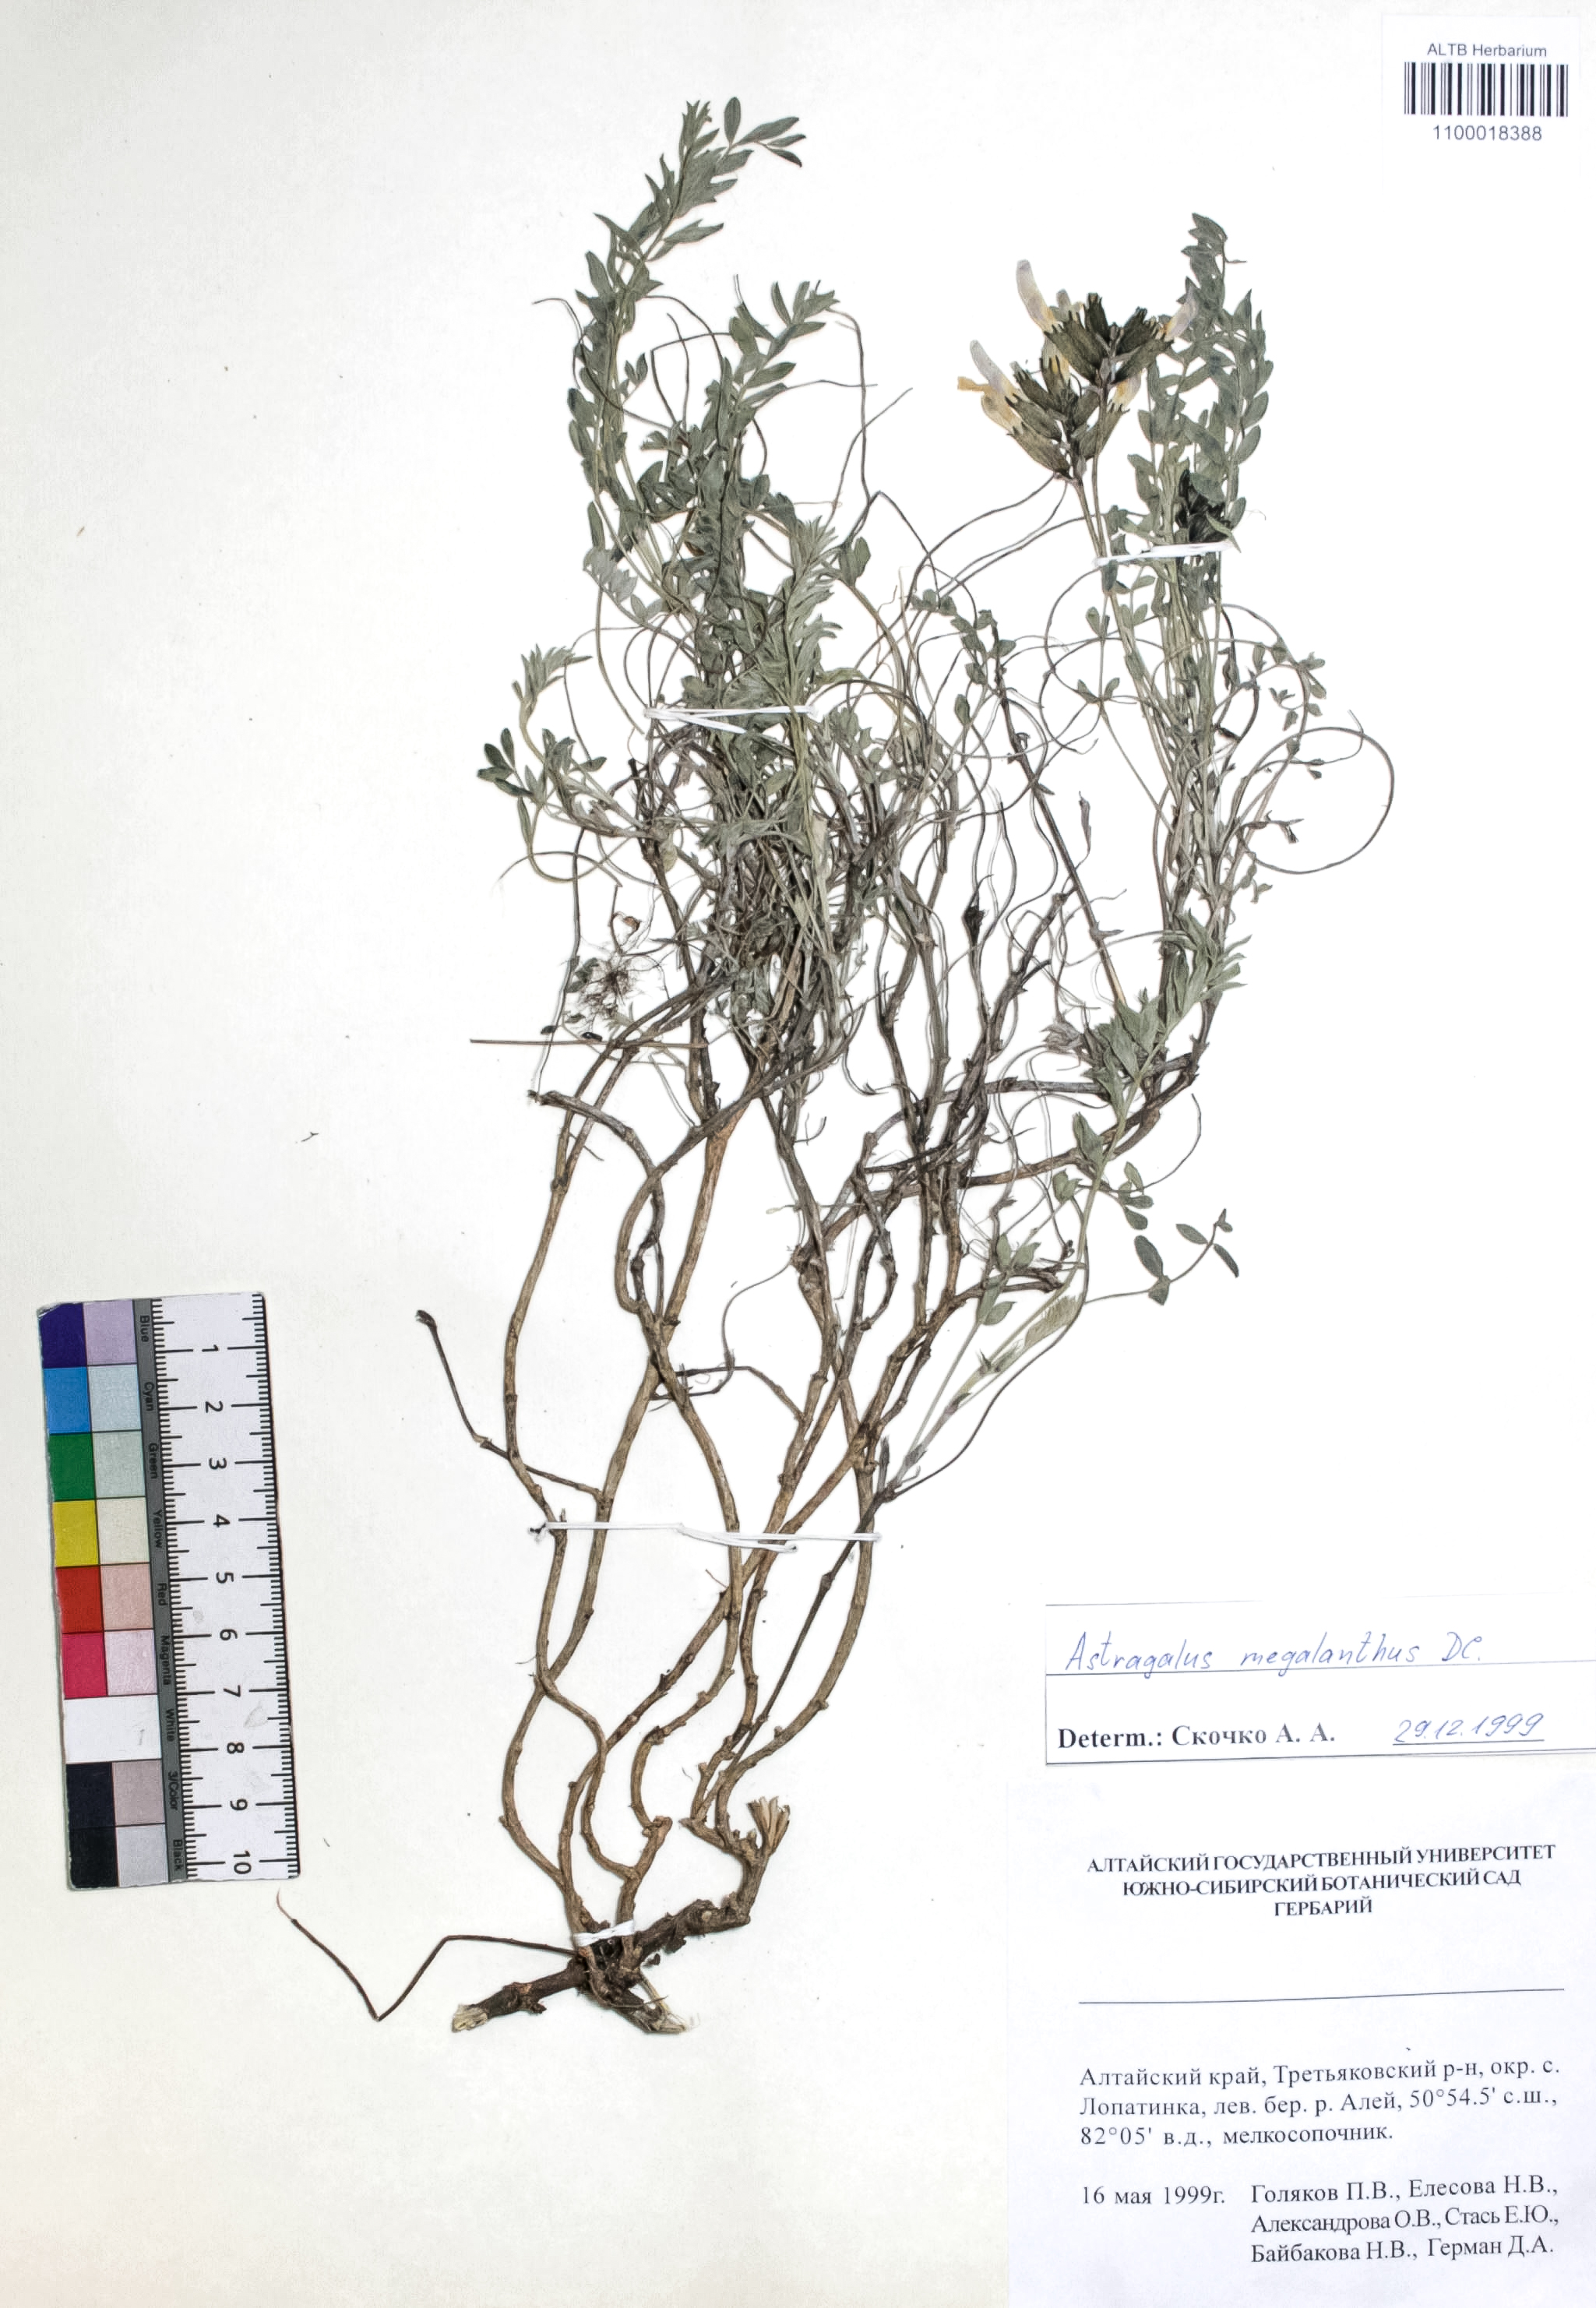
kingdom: Plantae
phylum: Tracheophyta
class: Magnoliopsida
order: Fabales
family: Fabaceae
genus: Astragalus
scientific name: Astragalus leptostachys
